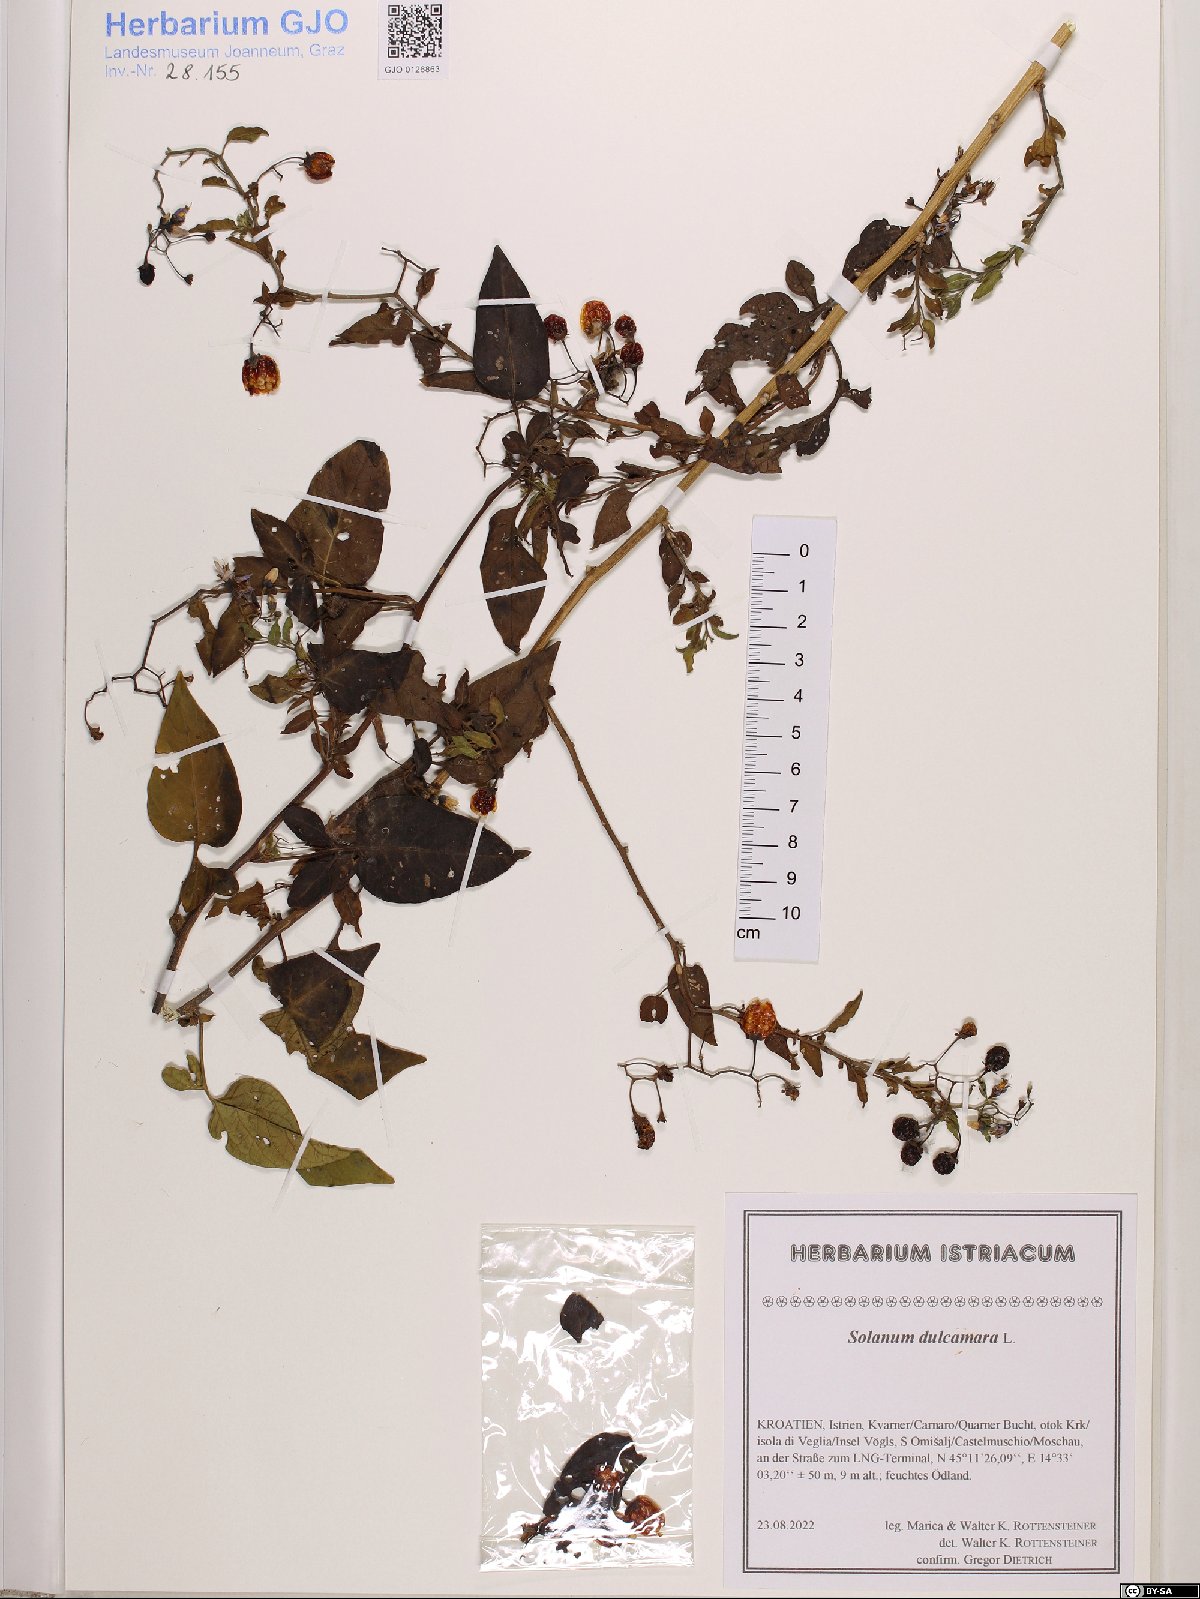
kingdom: Plantae
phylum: Tracheophyta
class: Magnoliopsida
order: Solanales
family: Solanaceae
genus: Solanum
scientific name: Solanum dulcamara
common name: Climbing nightshade
